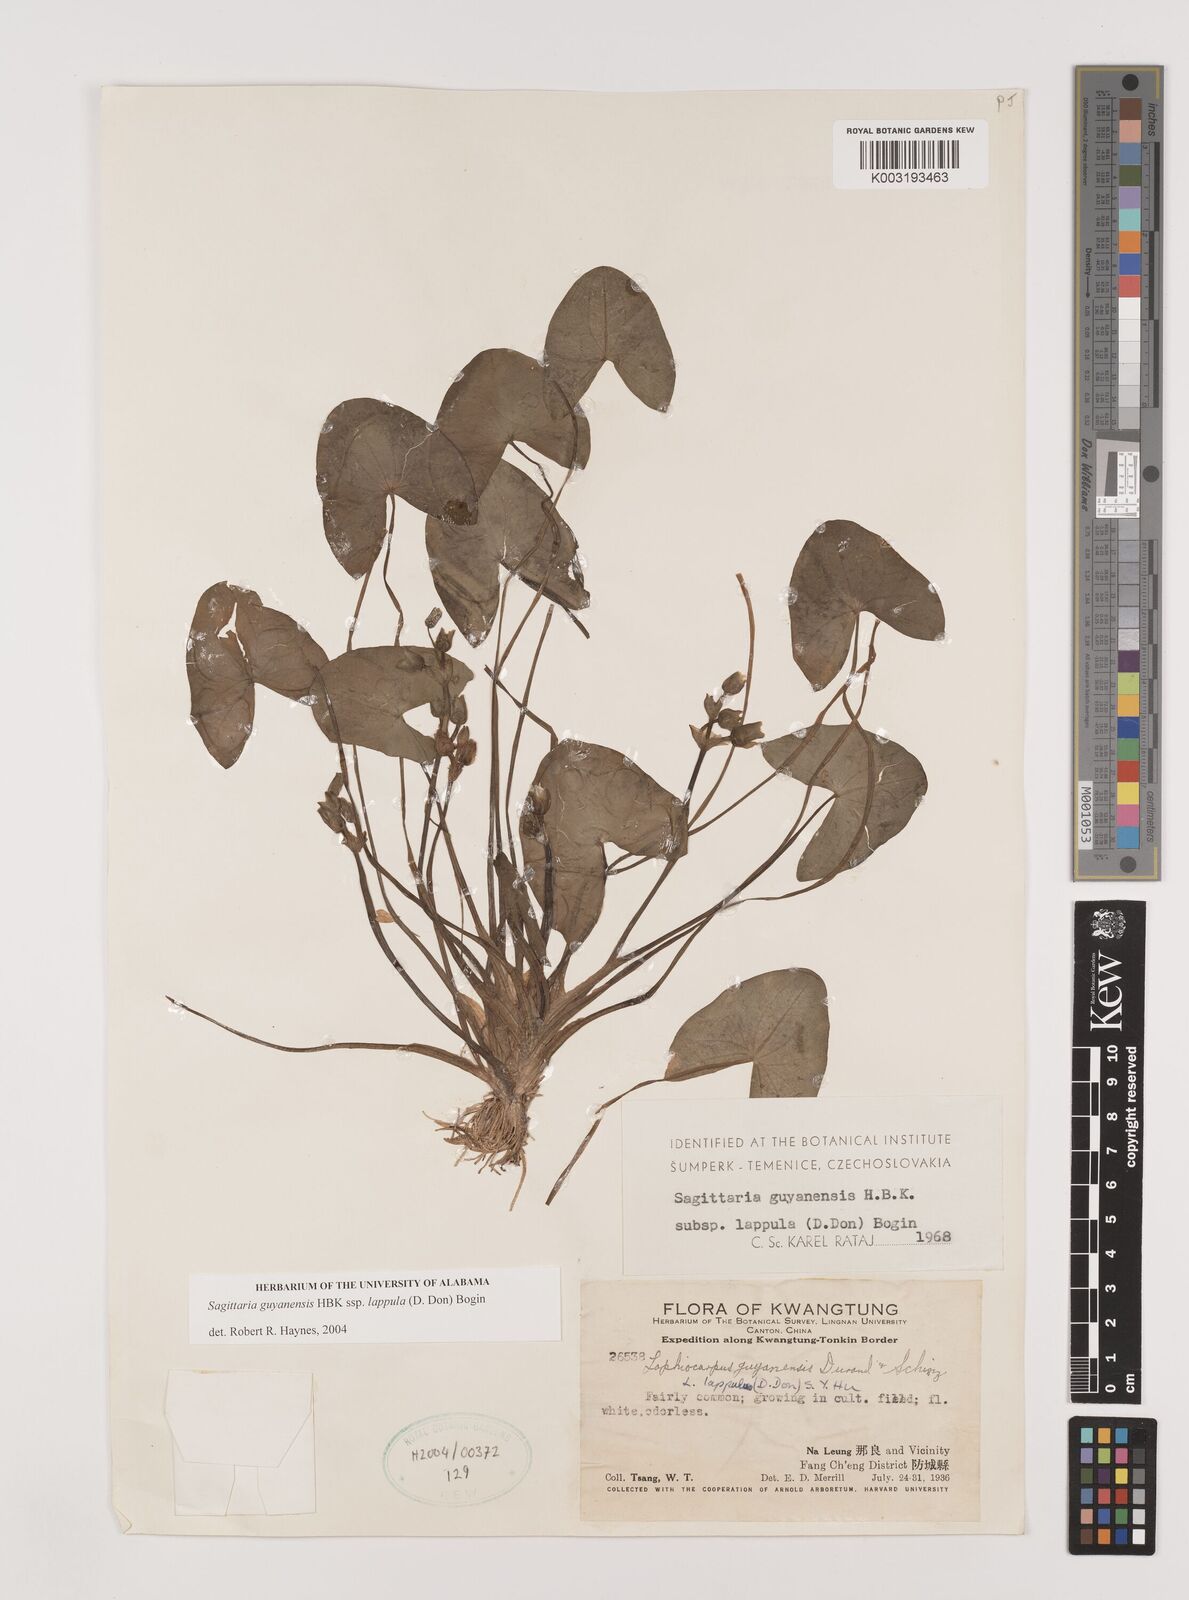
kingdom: Plantae
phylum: Tracheophyta
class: Liliopsida
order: Alismatales
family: Alismataceae
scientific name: Alismataceae
